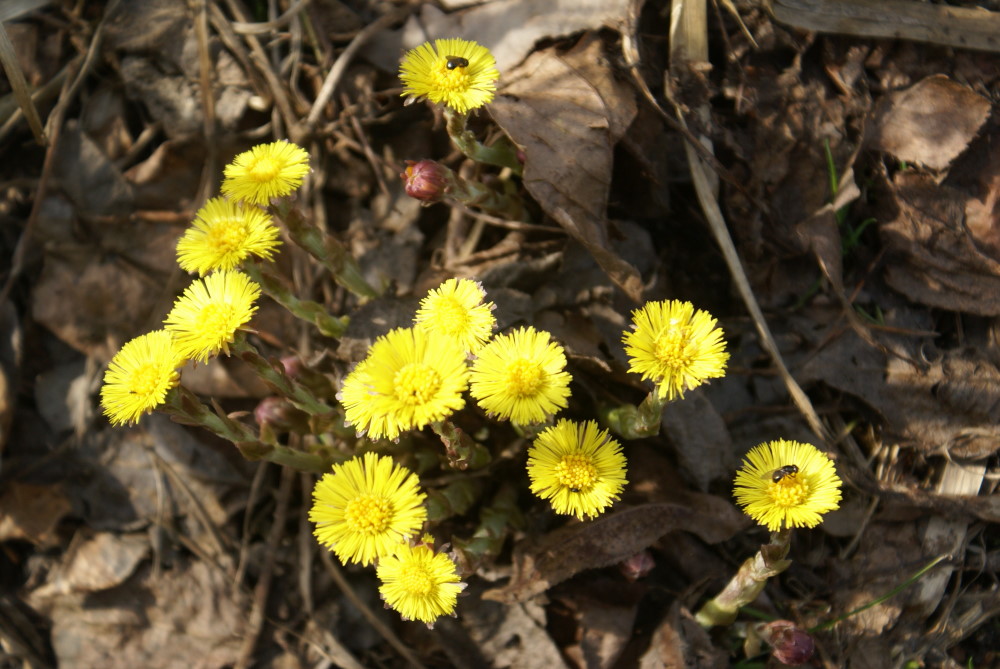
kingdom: Plantae
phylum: Tracheophyta
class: Magnoliopsida
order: Asterales
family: Asteraceae
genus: Tussilago
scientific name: Tussilago farfara
